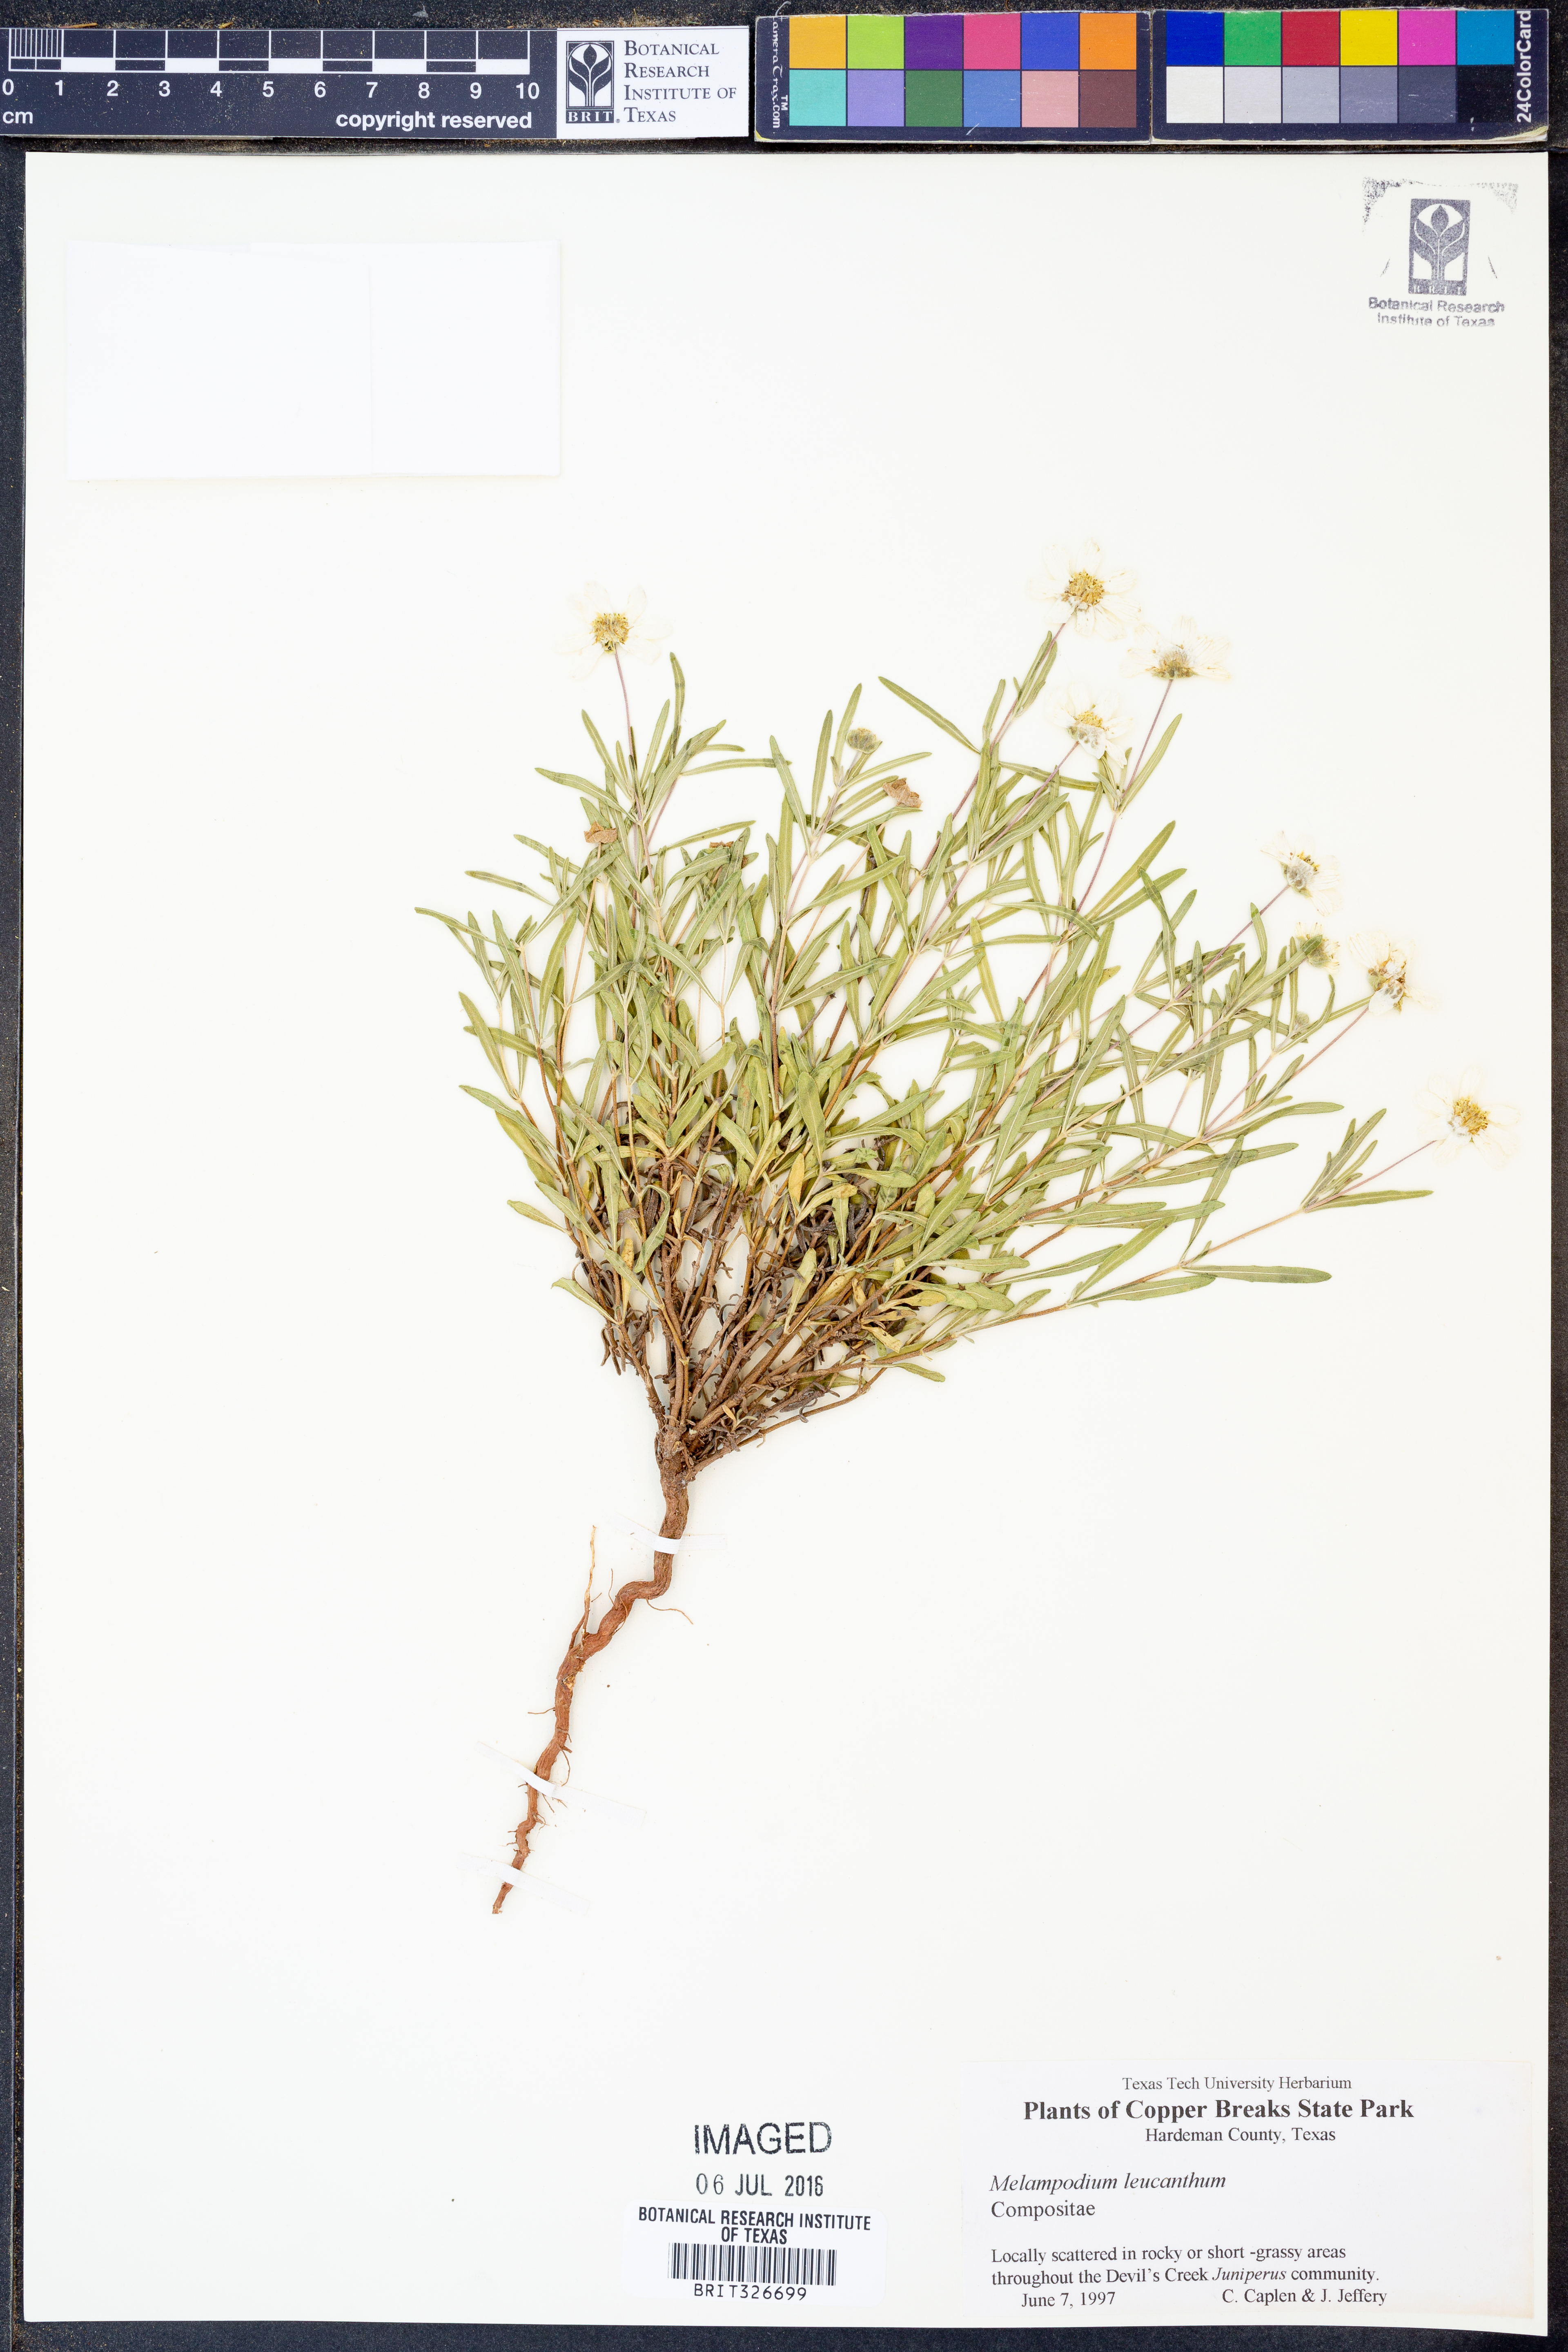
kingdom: Plantae
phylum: Tracheophyta
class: Magnoliopsida
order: Asterales
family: Asteraceae
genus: Melampodium
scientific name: Melampodium leucanthum
